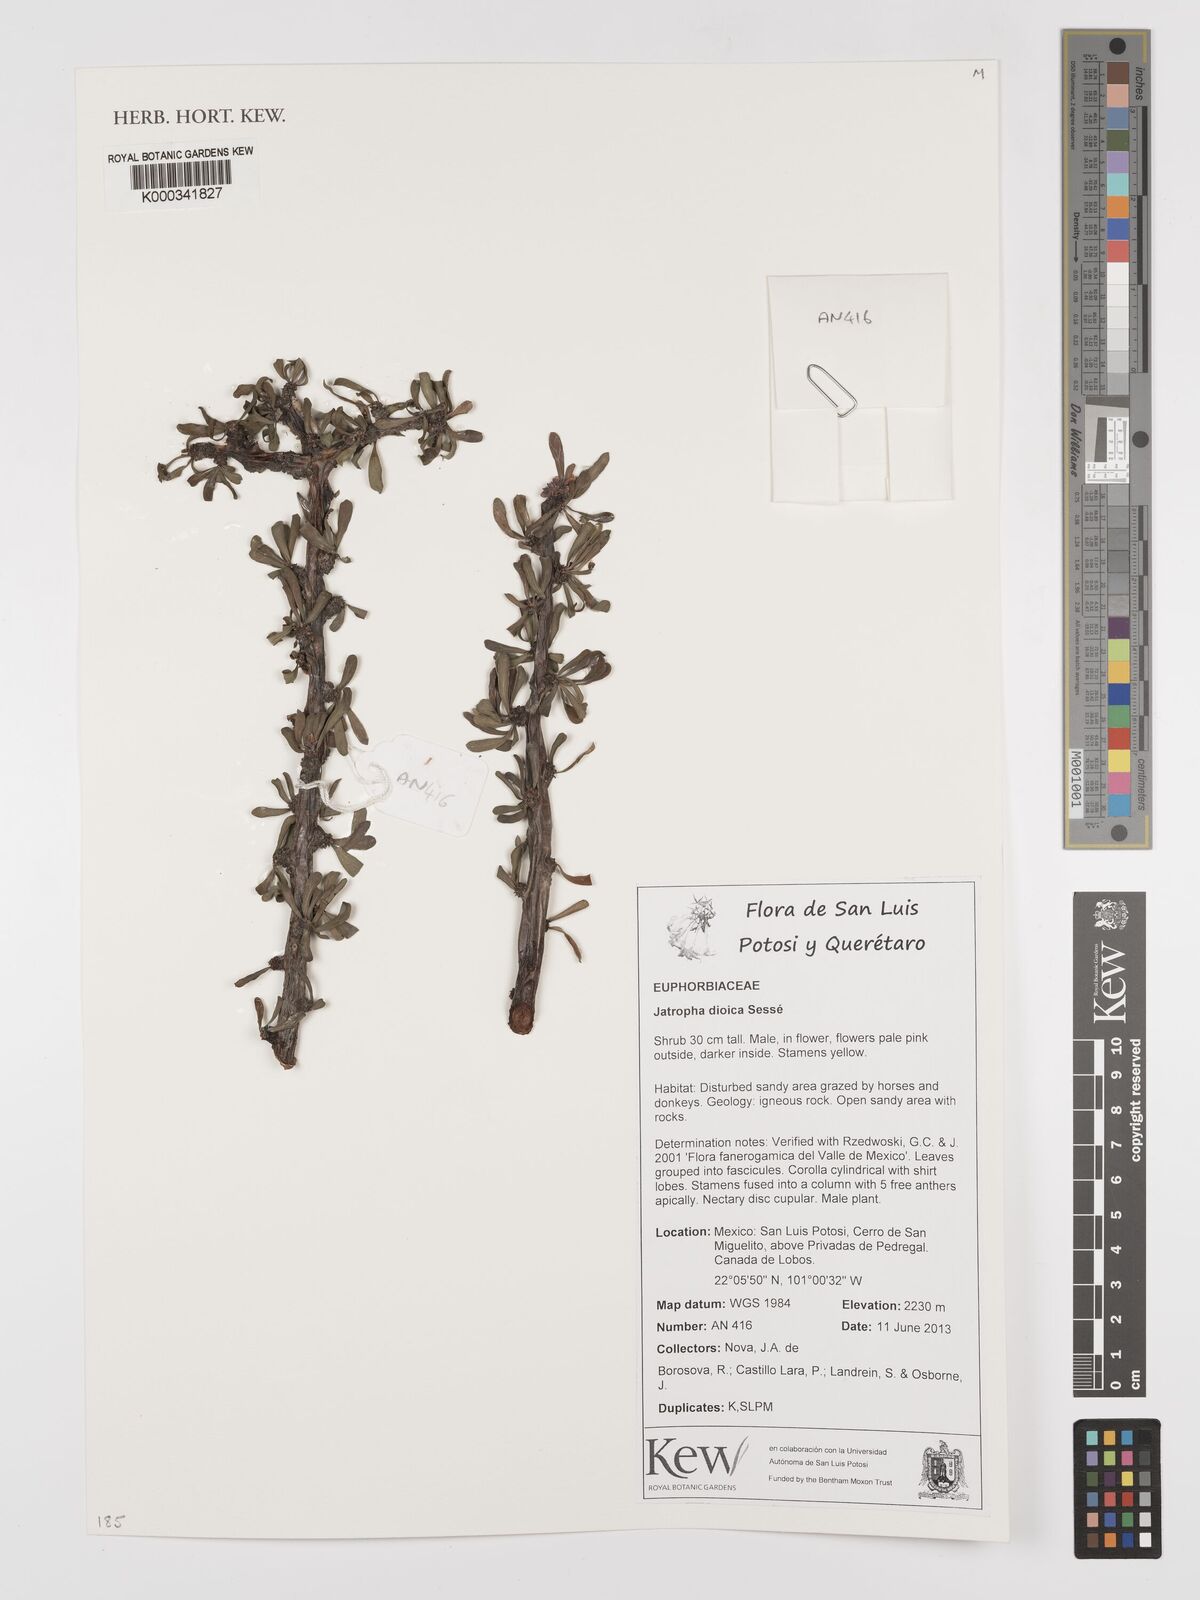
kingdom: Plantae
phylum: Tracheophyta
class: Magnoliopsida
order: Malpighiales
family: Euphorbiaceae
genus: Jatropha
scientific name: Jatropha dioica
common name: Leatherstem
